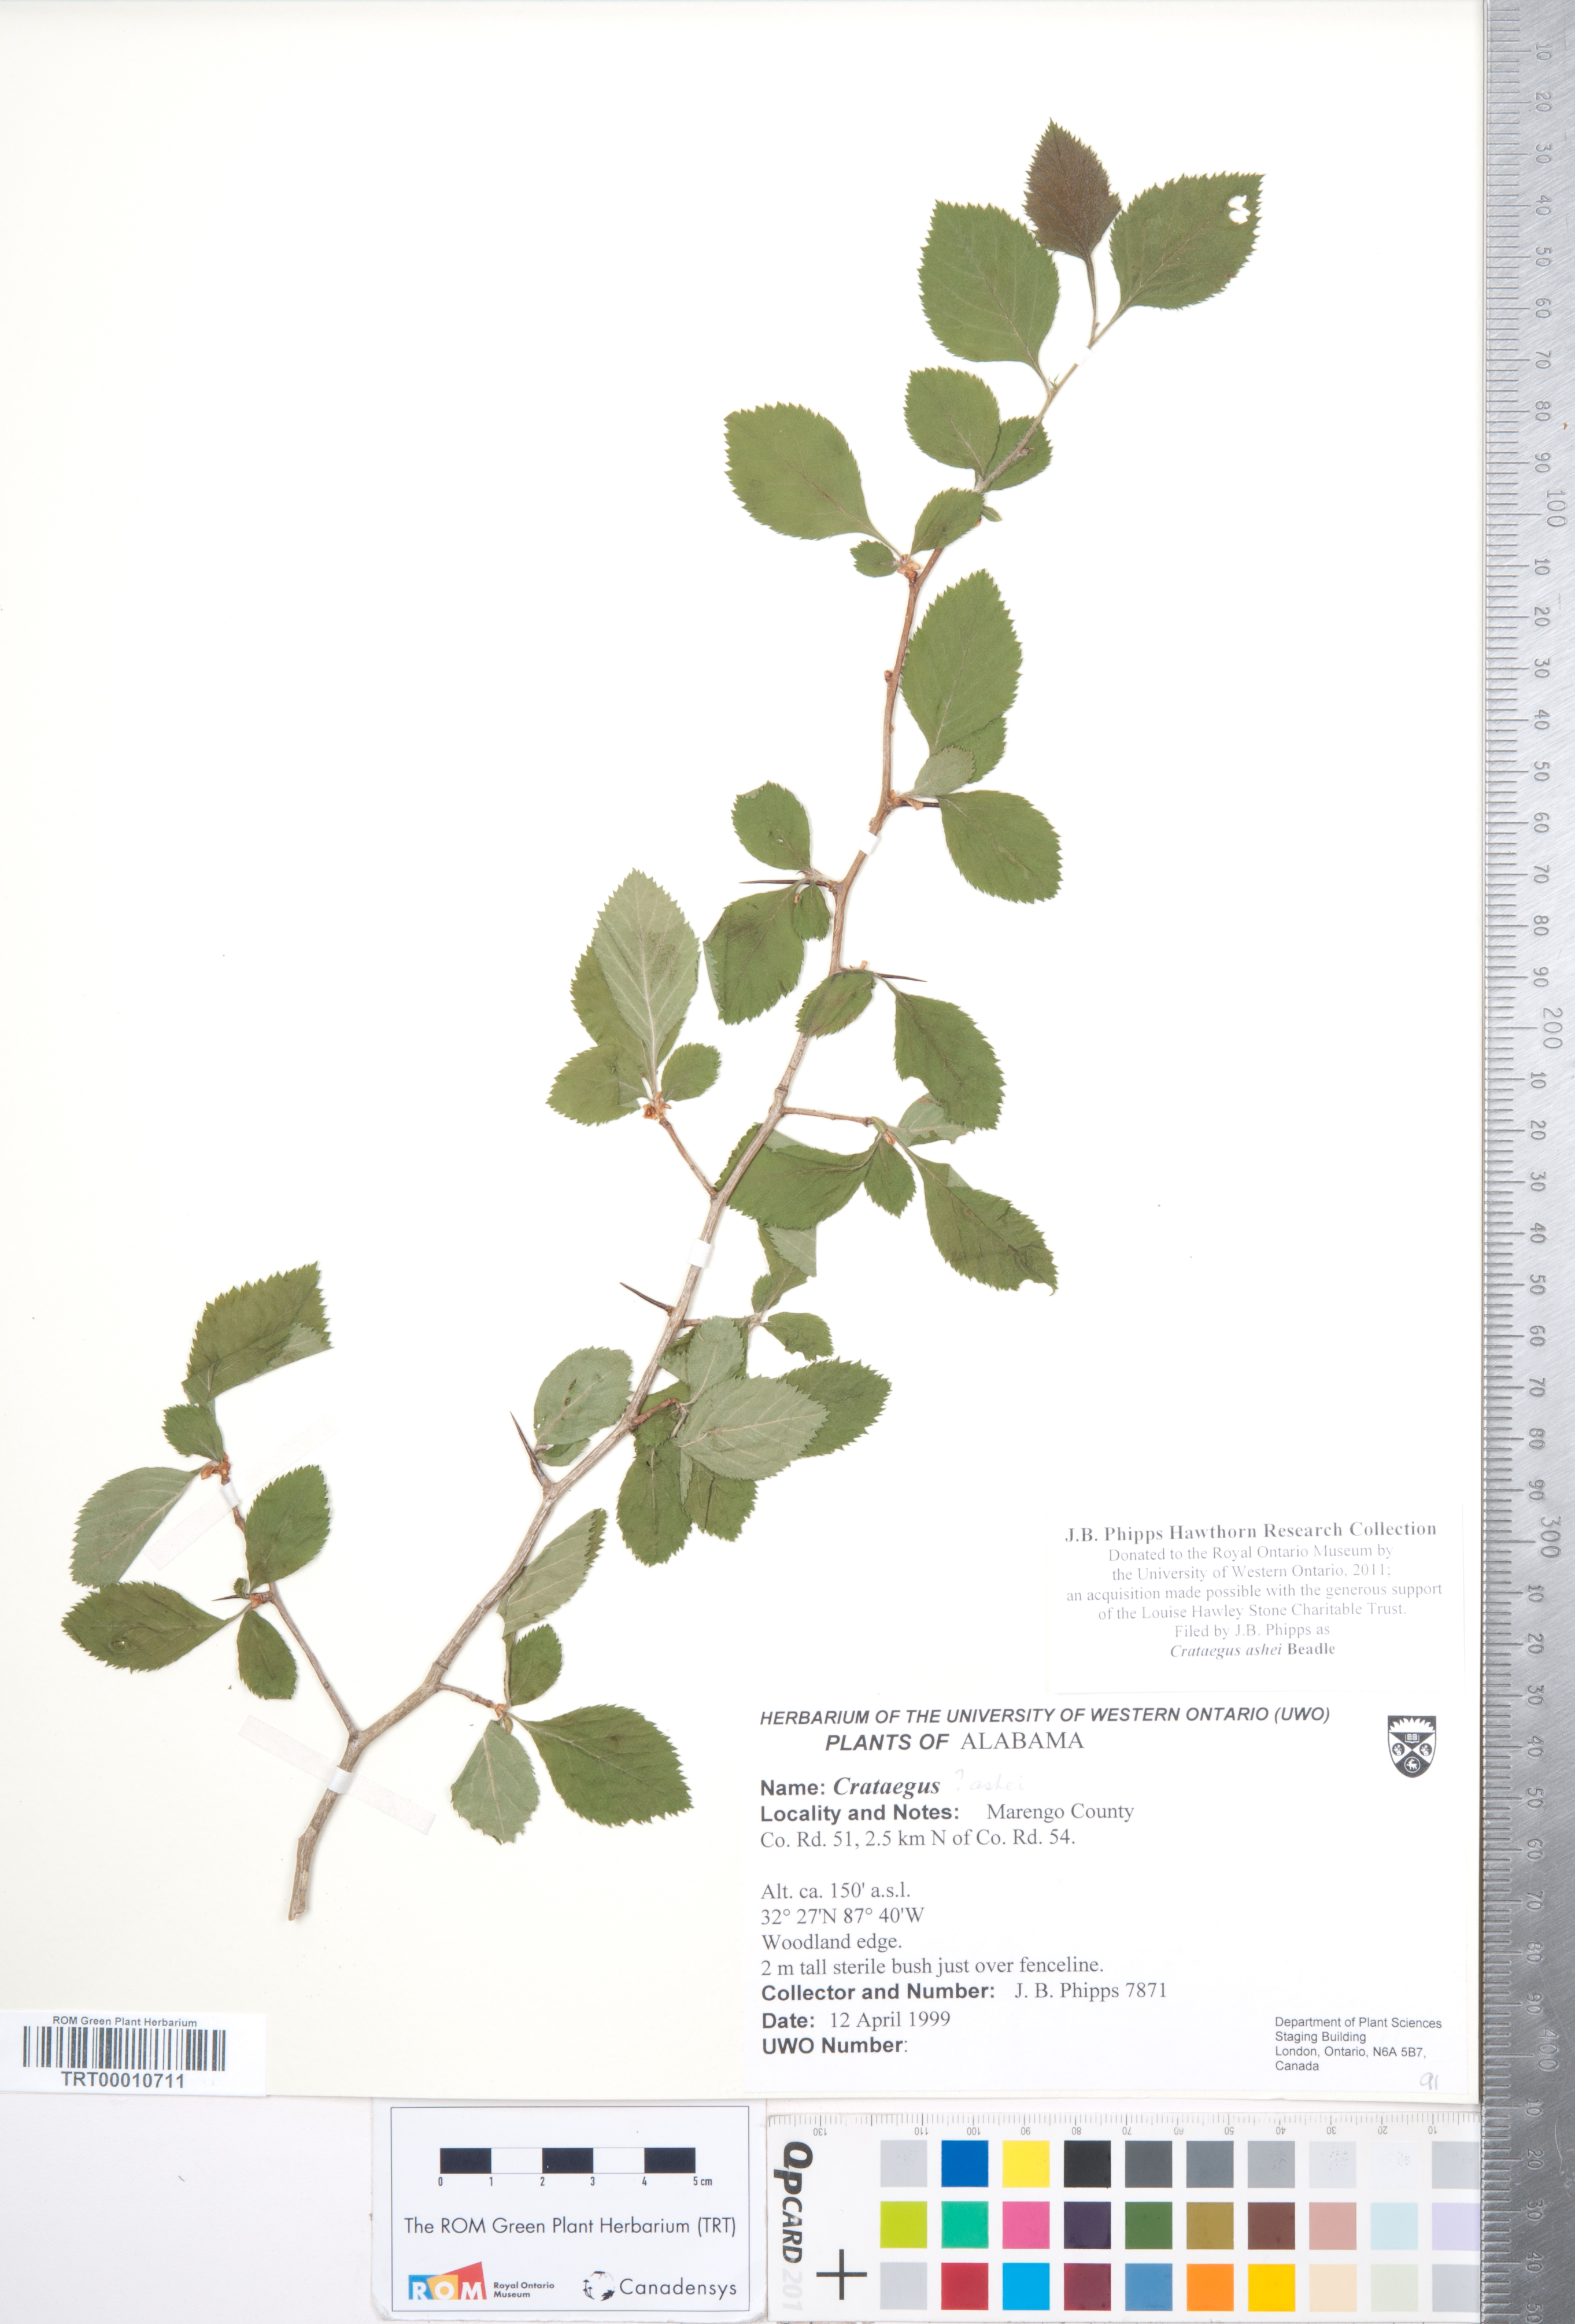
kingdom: Plantae
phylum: Tracheophyta
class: Magnoliopsida
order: Rosales
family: Rosaceae
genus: Crataegus
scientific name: Crataegus ashei
